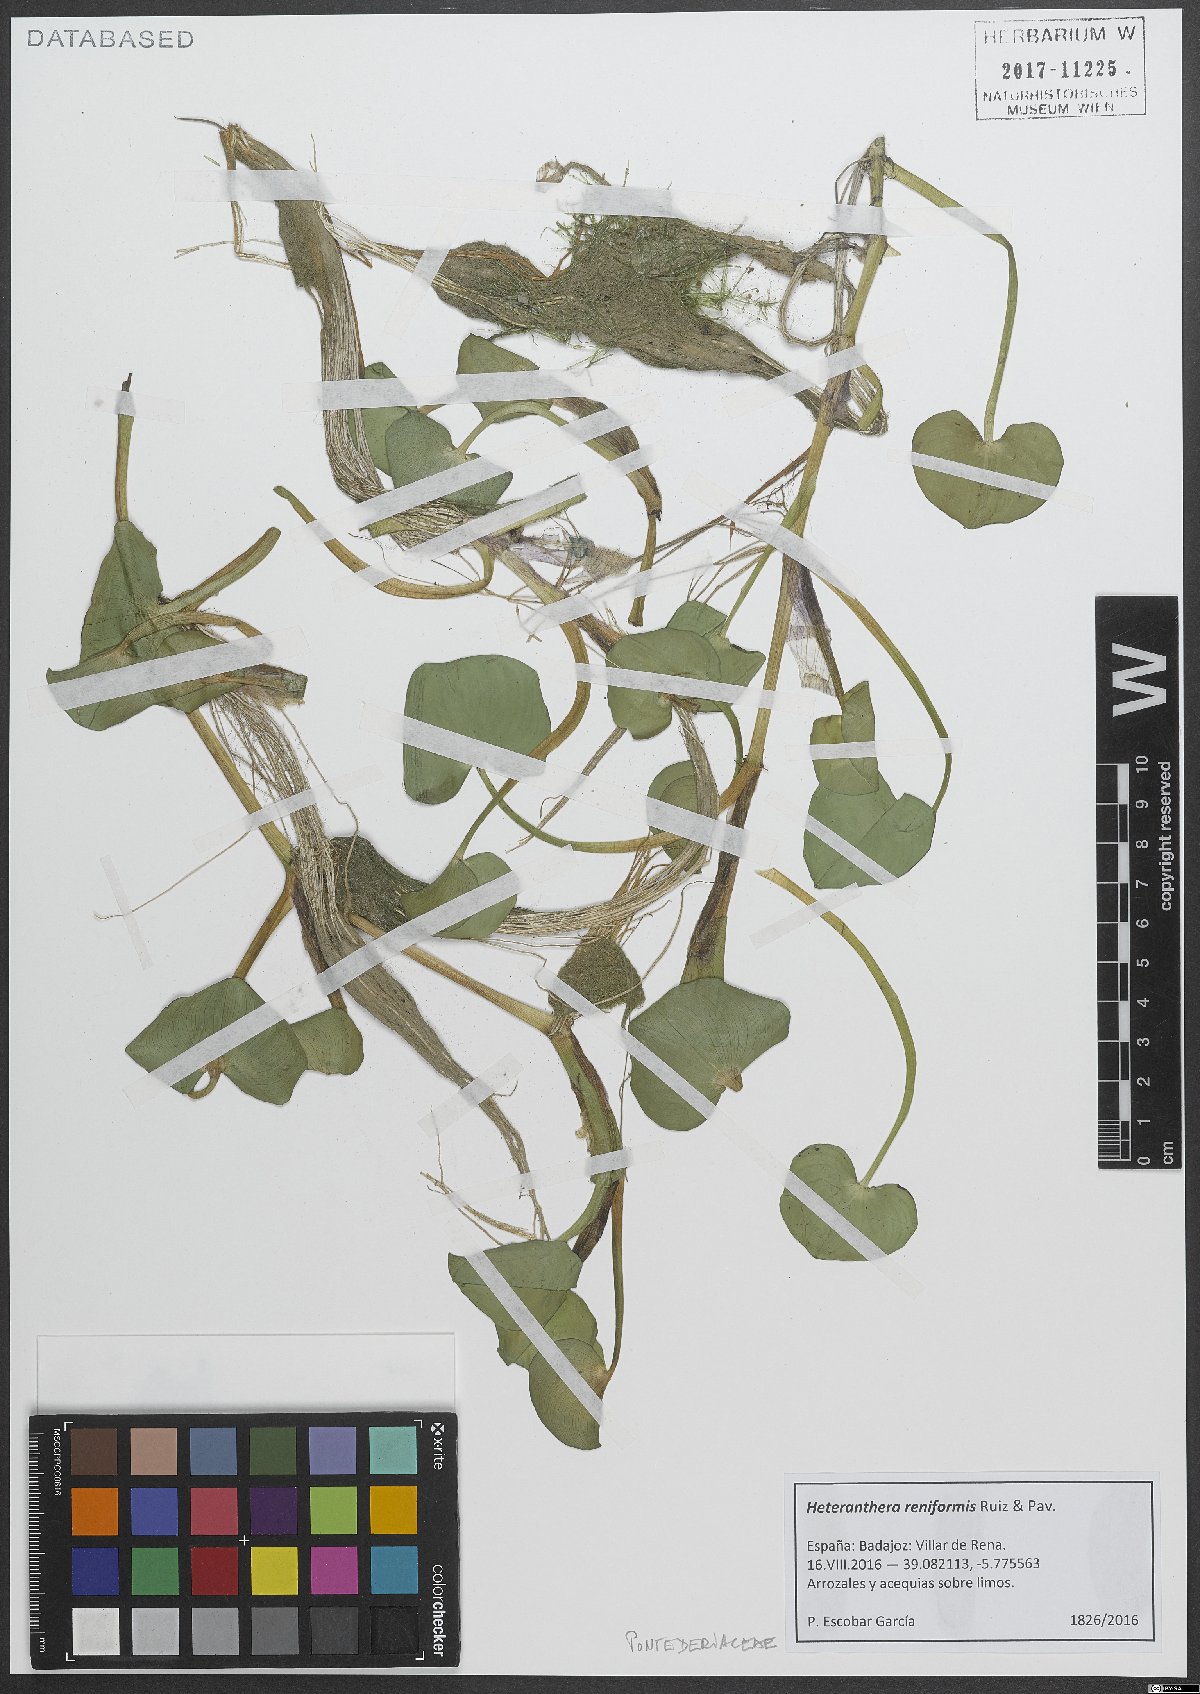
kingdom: Plantae
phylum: Tracheophyta
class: Liliopsida
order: Commelinales
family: Pontederiaceae
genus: Heteranthera
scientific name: Heteranthera reniformis
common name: Kidneyleaf mudplantain
